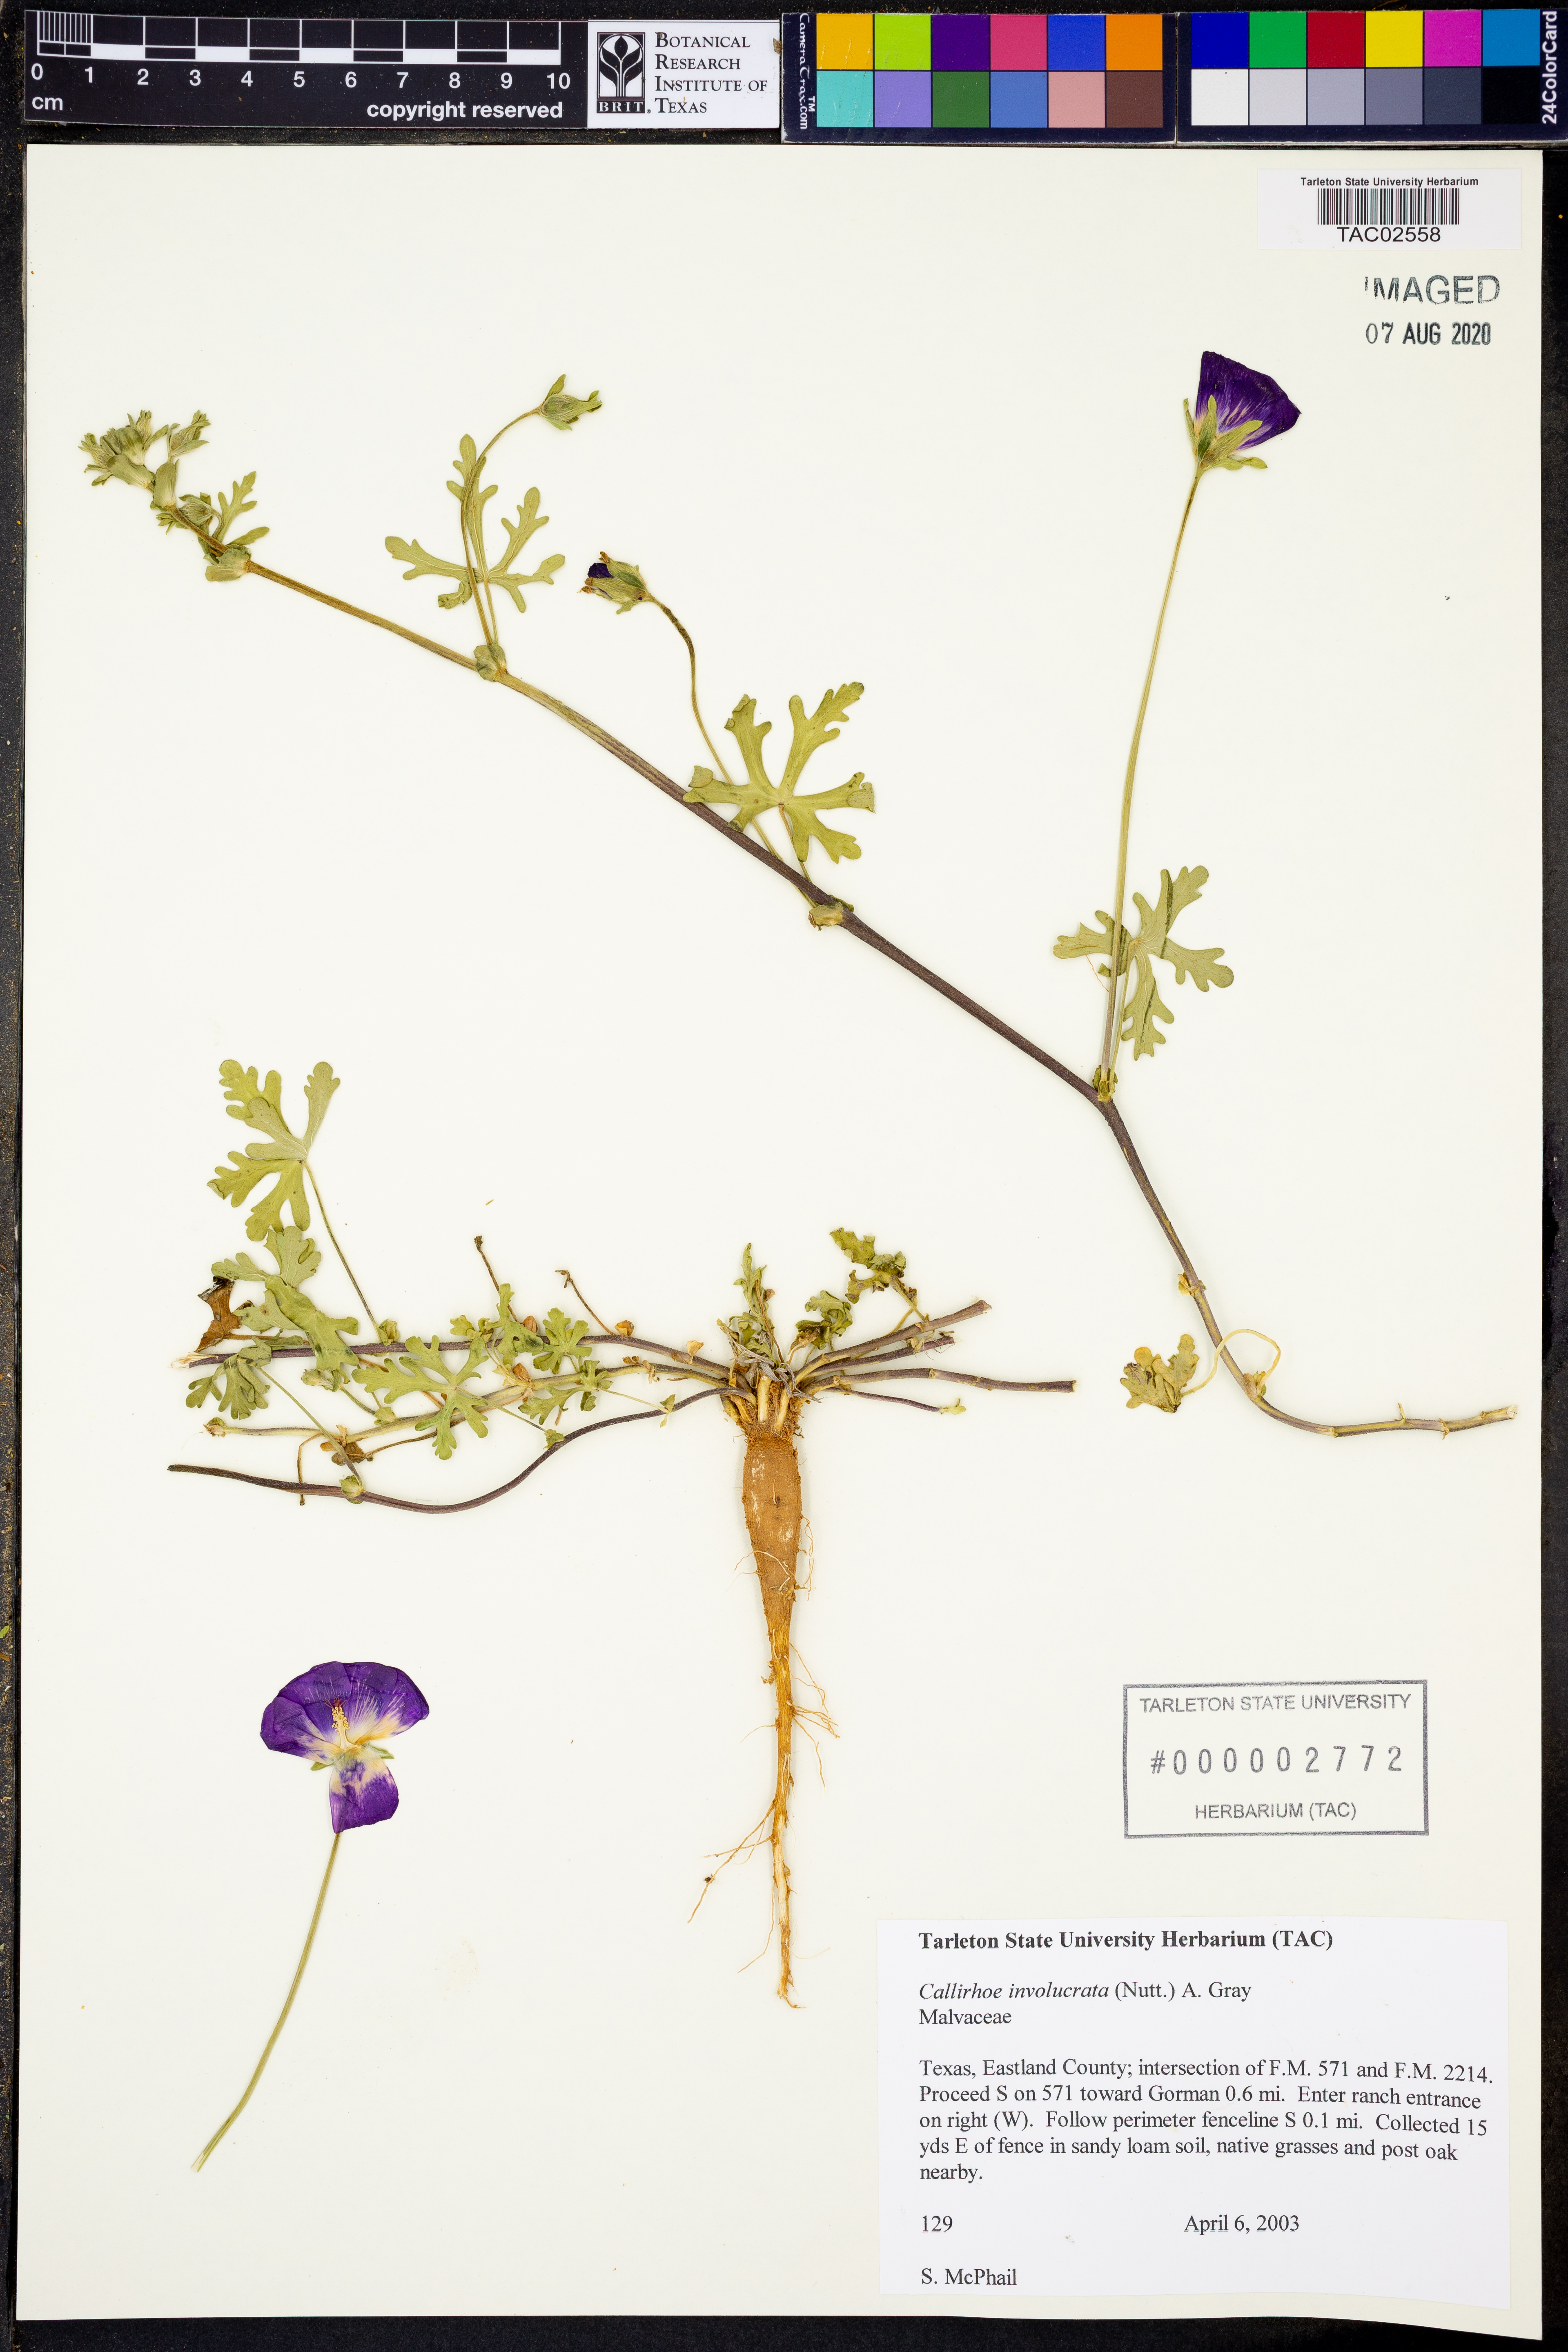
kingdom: Plantae
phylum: Tracheophyta
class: Magnoliopsida
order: Malvales
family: Malvaceae
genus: Callirhoe
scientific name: Callirhoe involucrata
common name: Purple poppy-mallow
